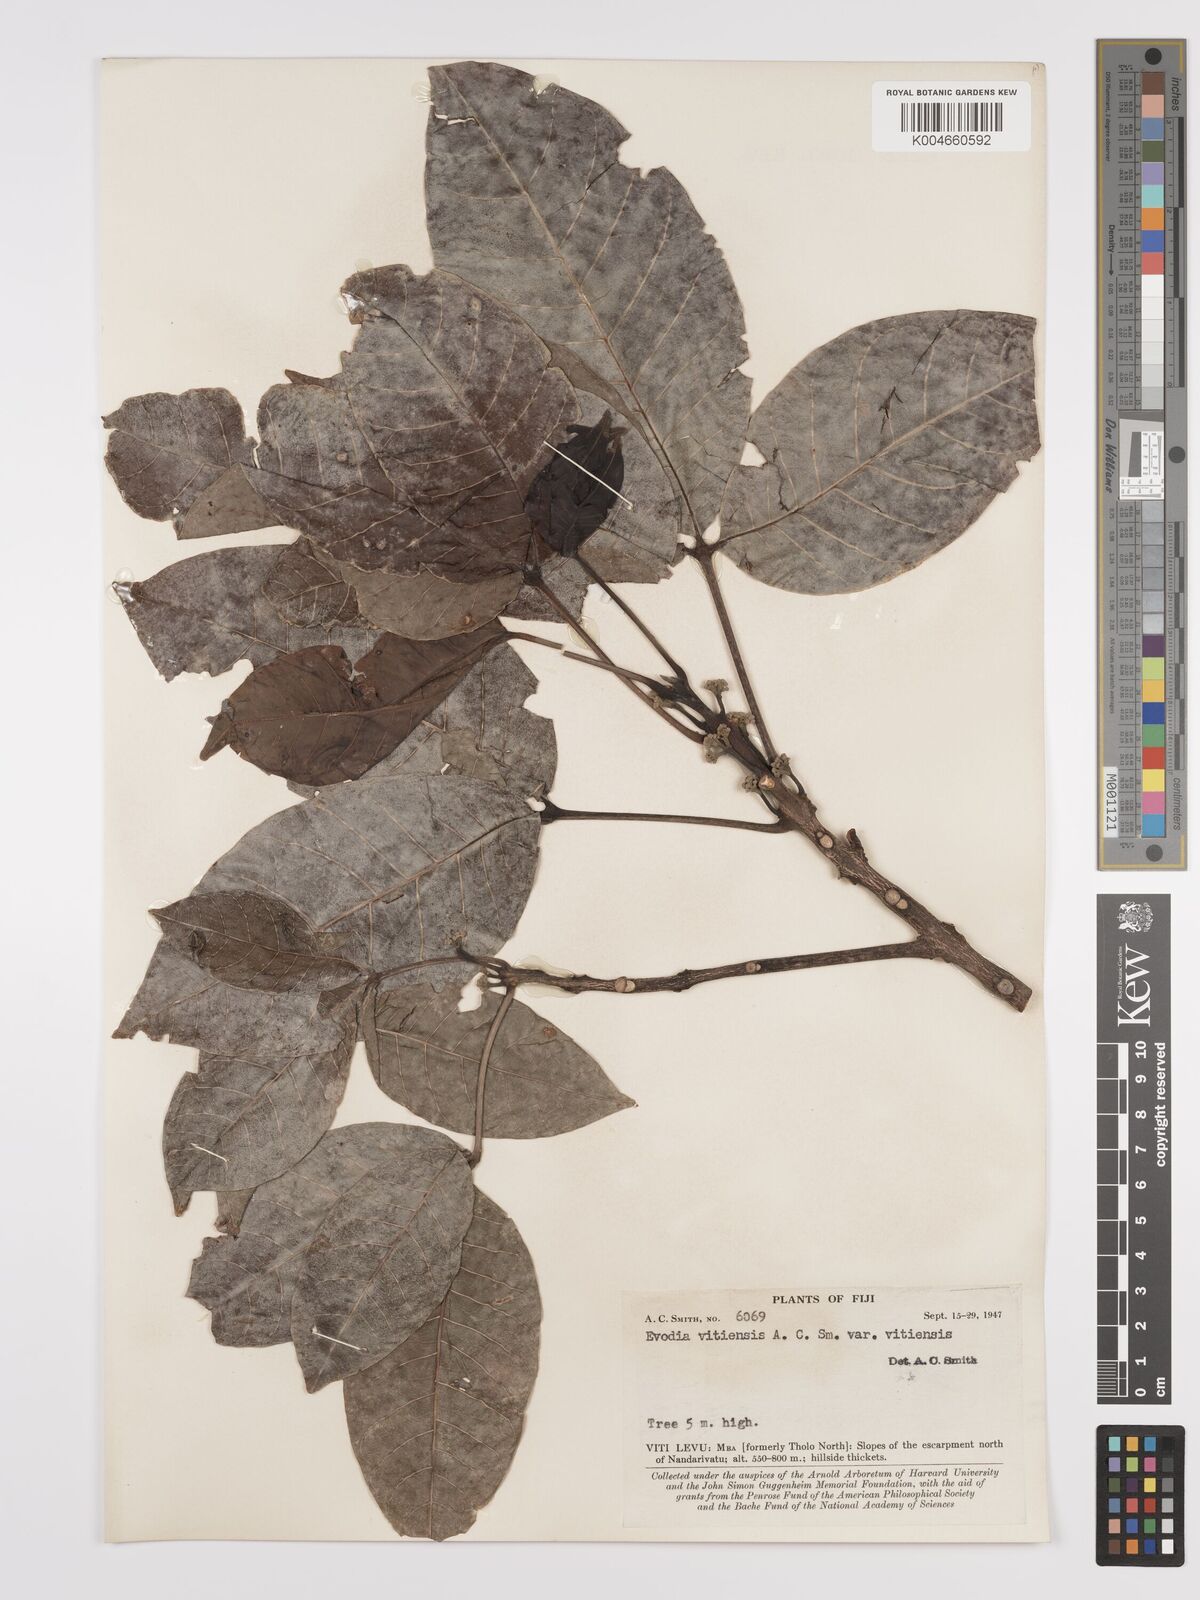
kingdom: Plantae
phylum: Tracheophyta
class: Magnoliopsida
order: Sapindales
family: Rutaceae
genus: Melicope
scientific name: Melicope cucullata
